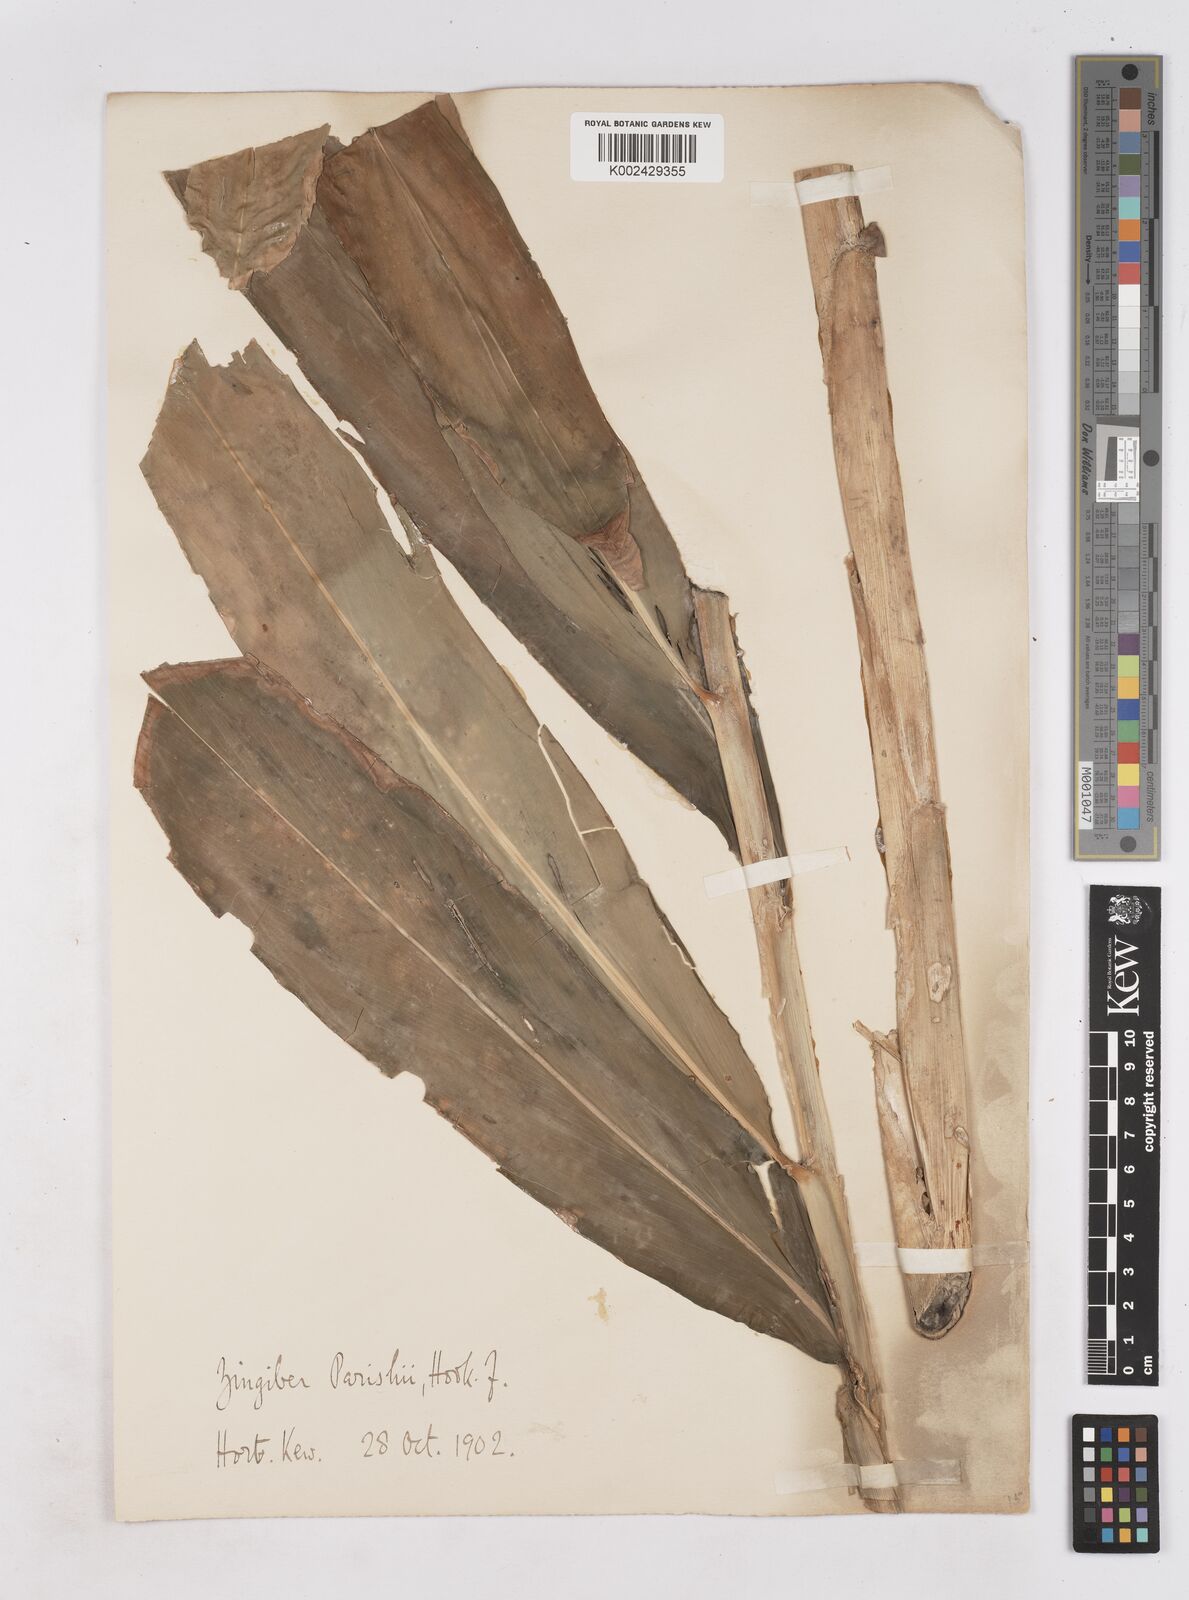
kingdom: Plantae
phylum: Tracheophyta
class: Liliopsida
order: Zingiberales
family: Zingiberaceae
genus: Zingiber
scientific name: Zingiber spectabile
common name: Beehive ginger
